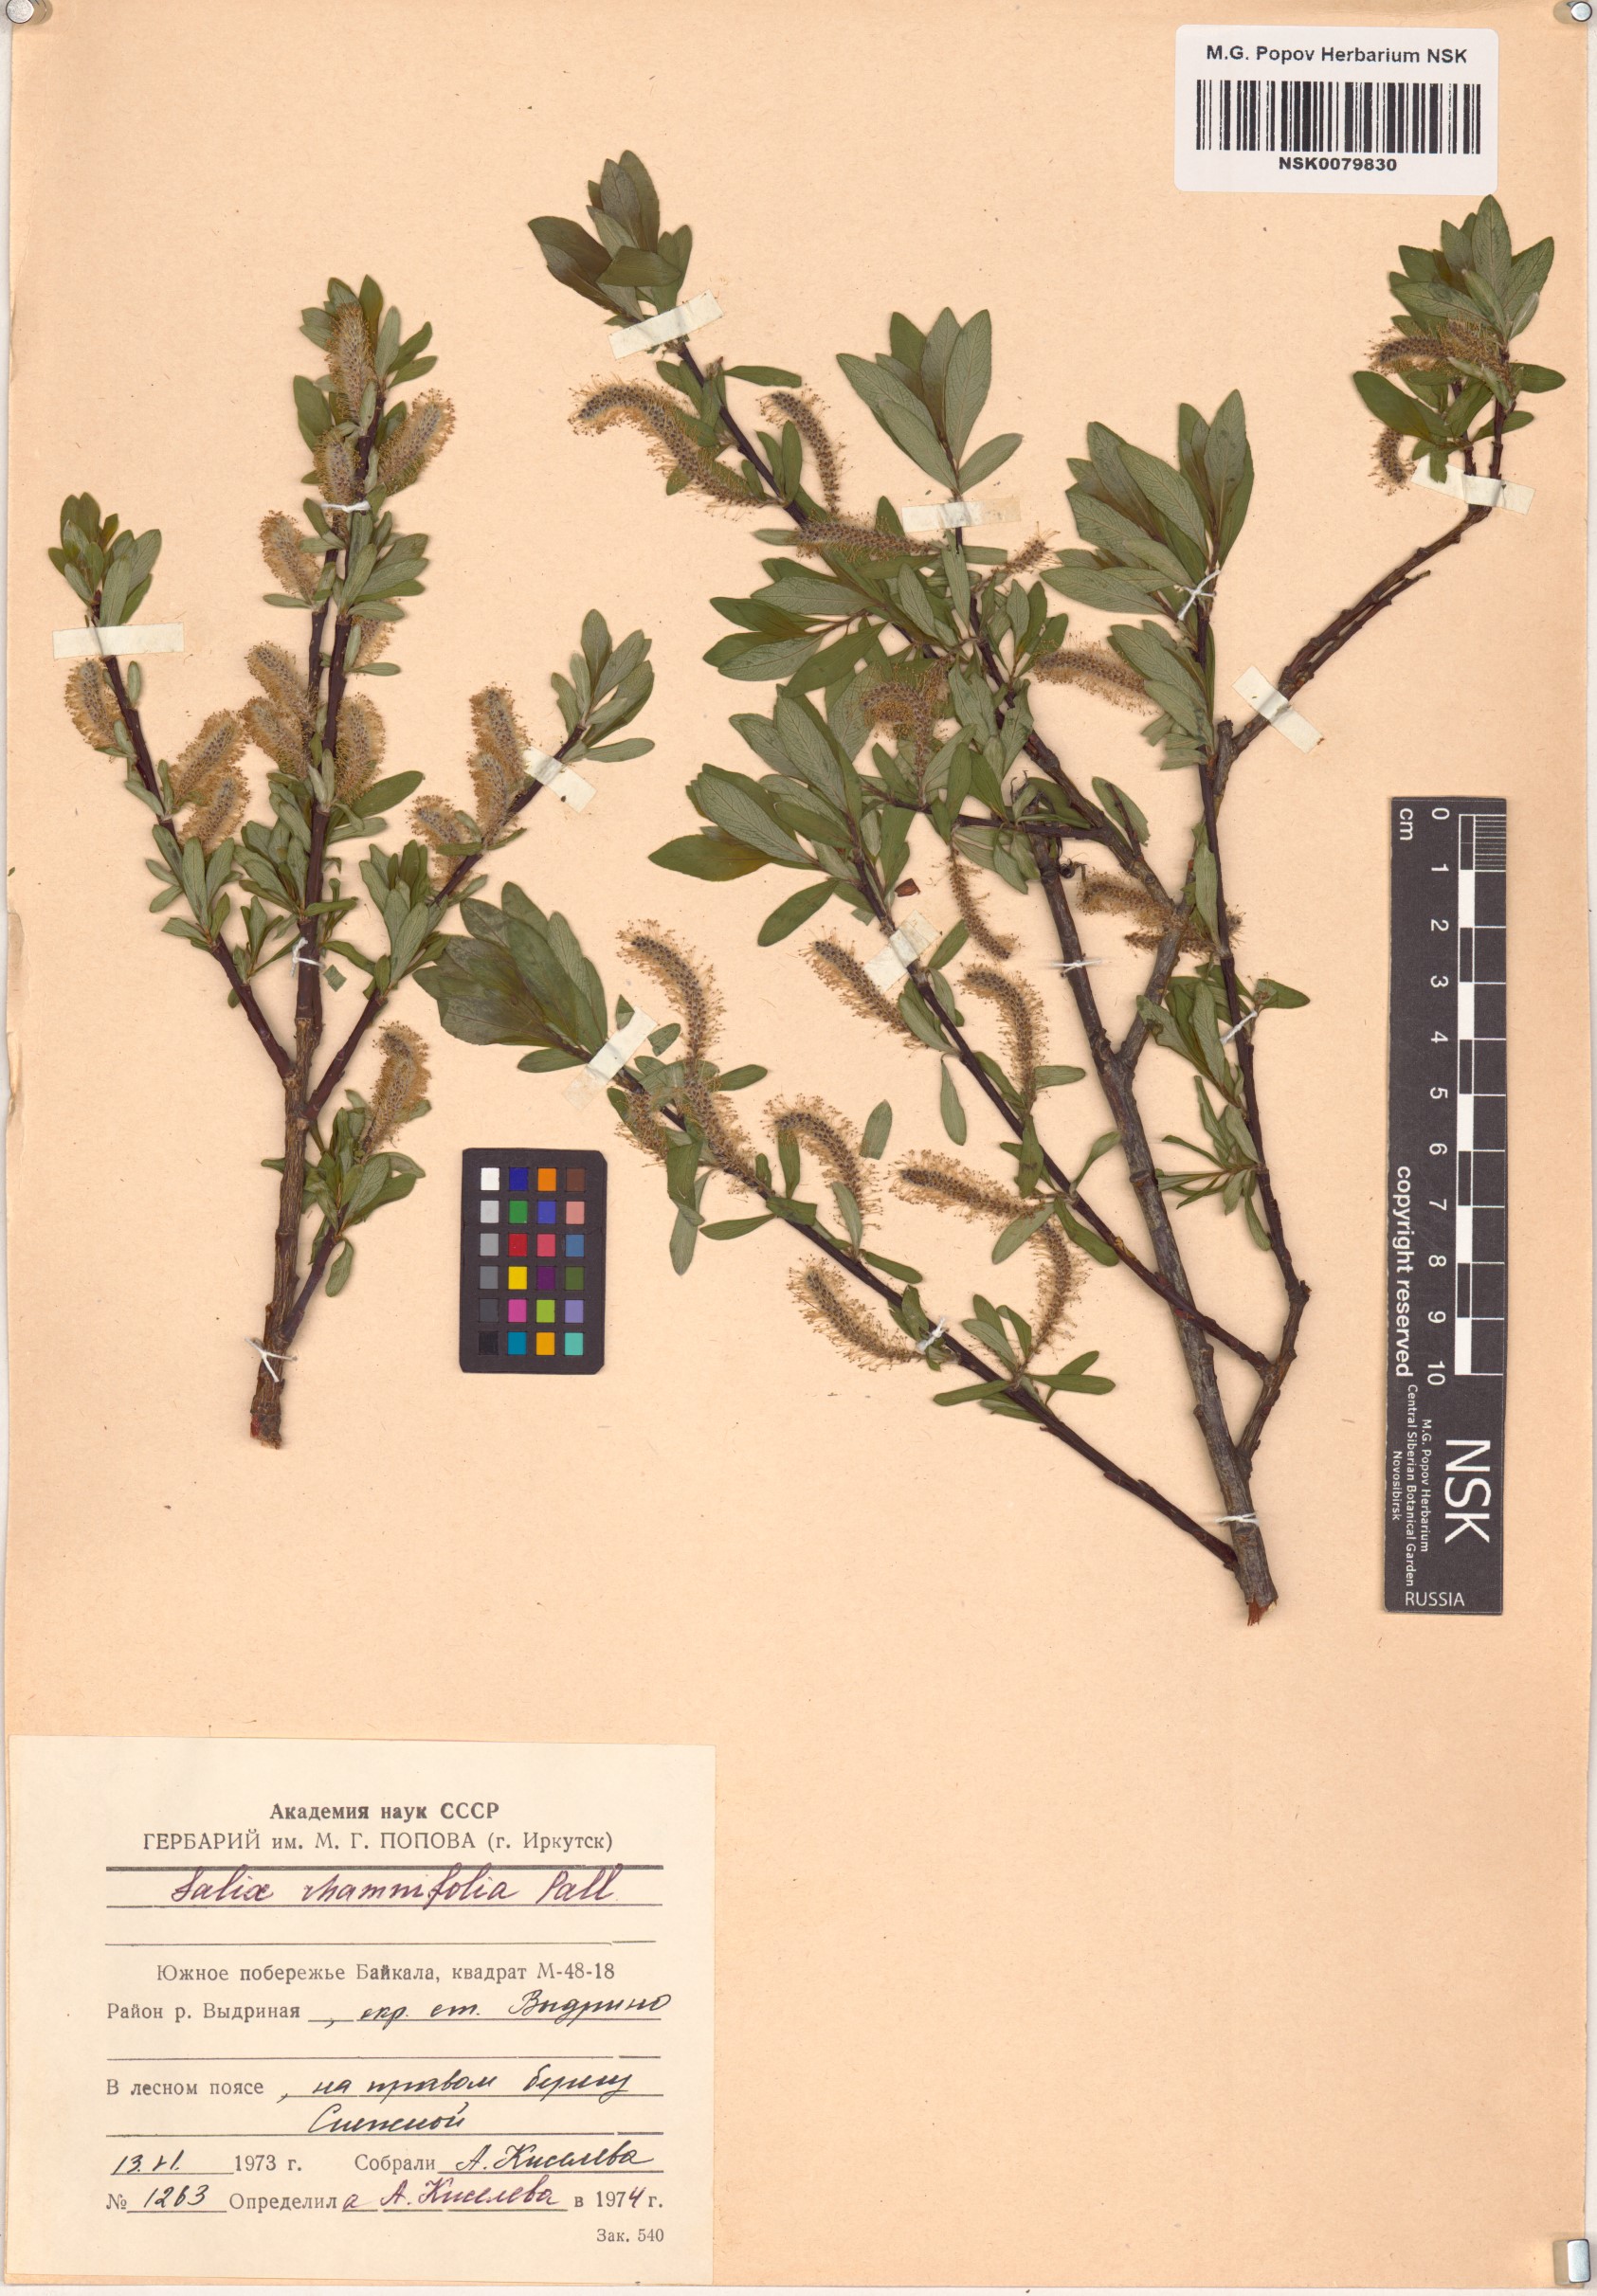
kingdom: Plantae
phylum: Tracheophyta
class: Magnoliopsida
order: Malpighiales
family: Salicaceae
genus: Salix
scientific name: Salix rhamnifolia
